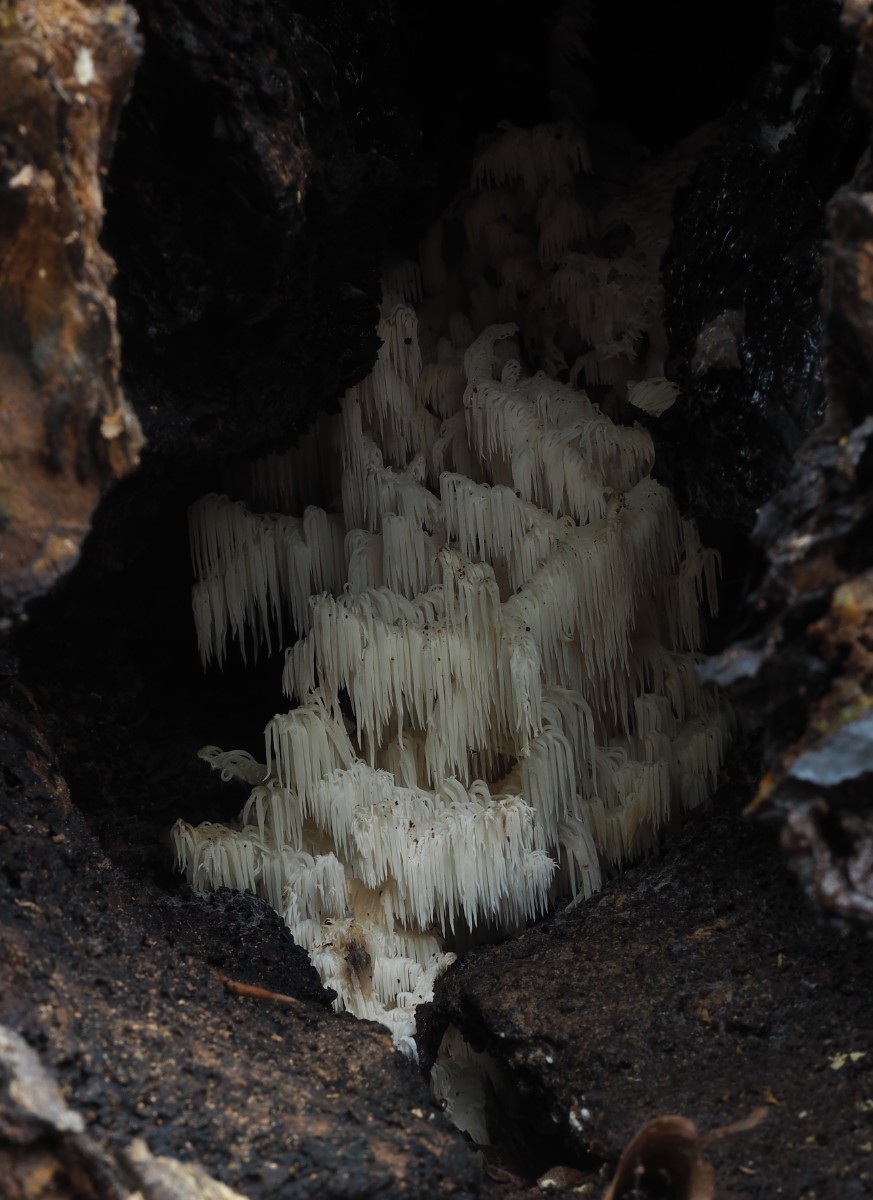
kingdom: Fungi
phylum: Basidiomycota
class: Agaricomycetes
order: Russulales
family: Hericiaceae
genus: Hericium
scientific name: Hericium coralloides
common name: koralpigsvamp
